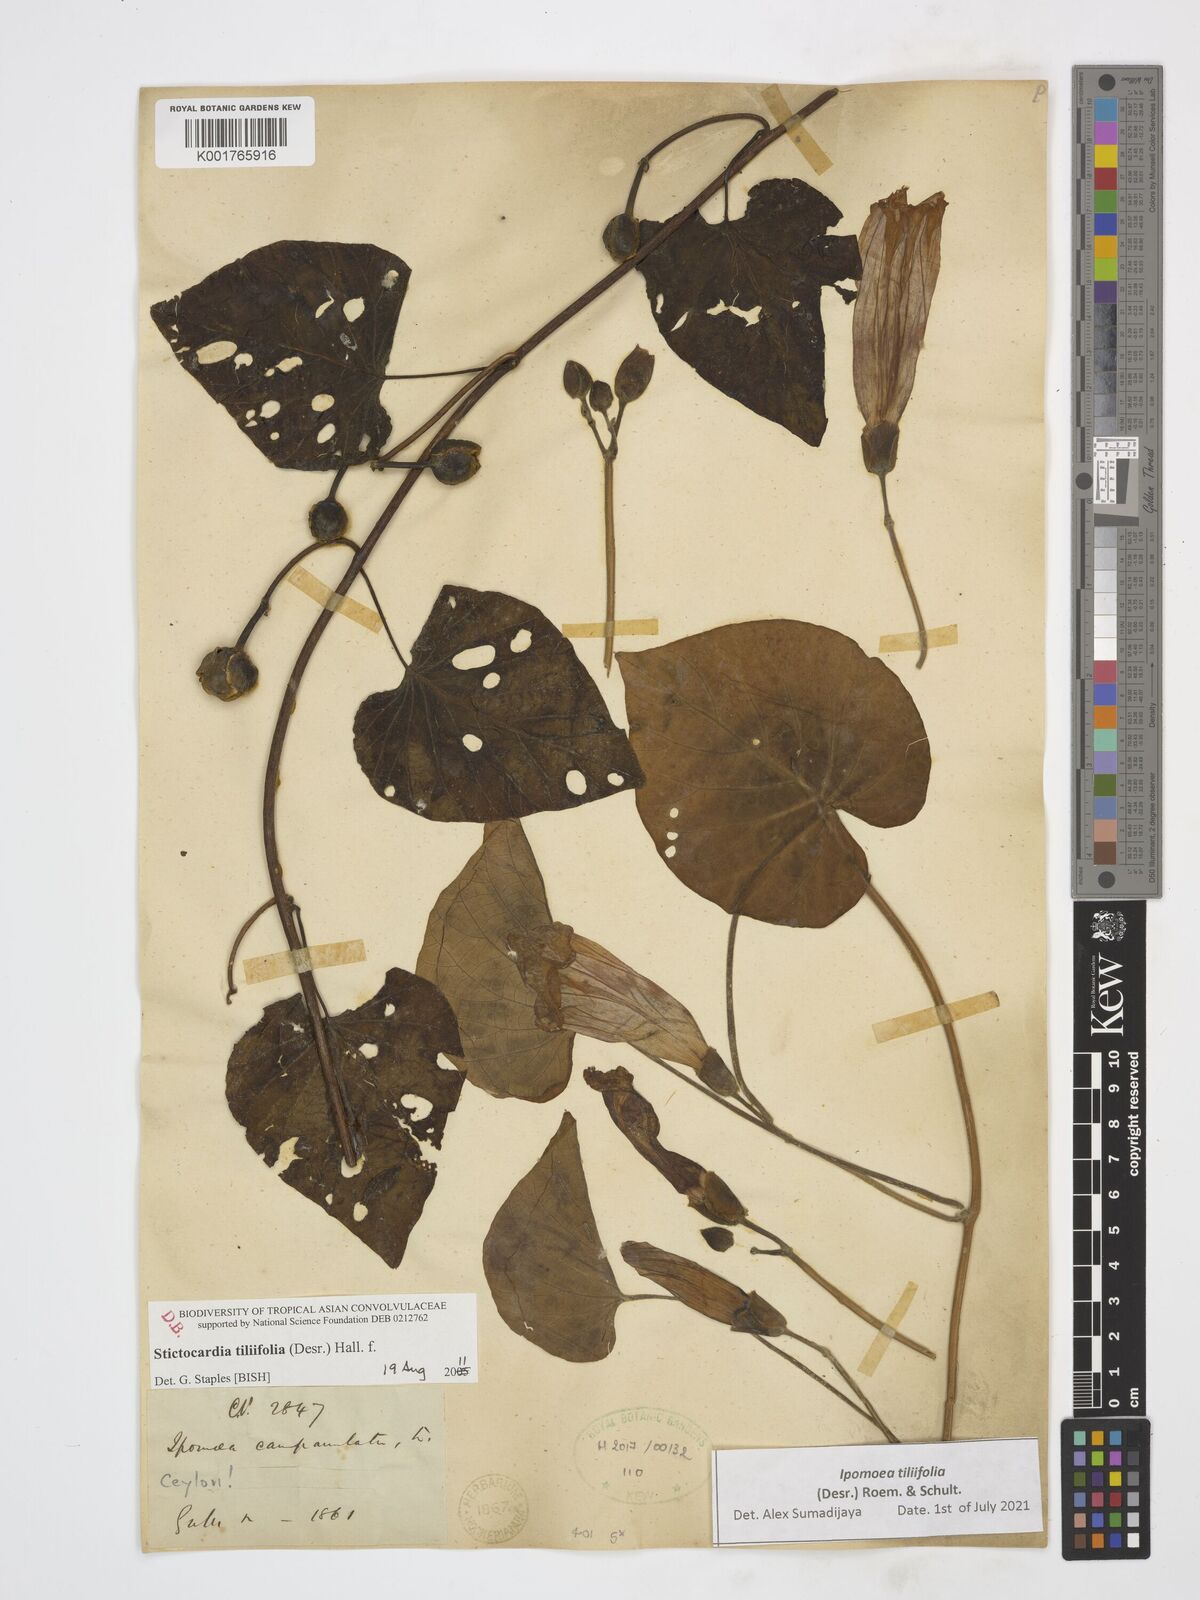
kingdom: Plantae
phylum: Tracheophyta
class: Magnoliopsida
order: Solanales
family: Convolvulaceae
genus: Stictocardia
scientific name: Stictocardia tiliifolia
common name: Spottedheart
